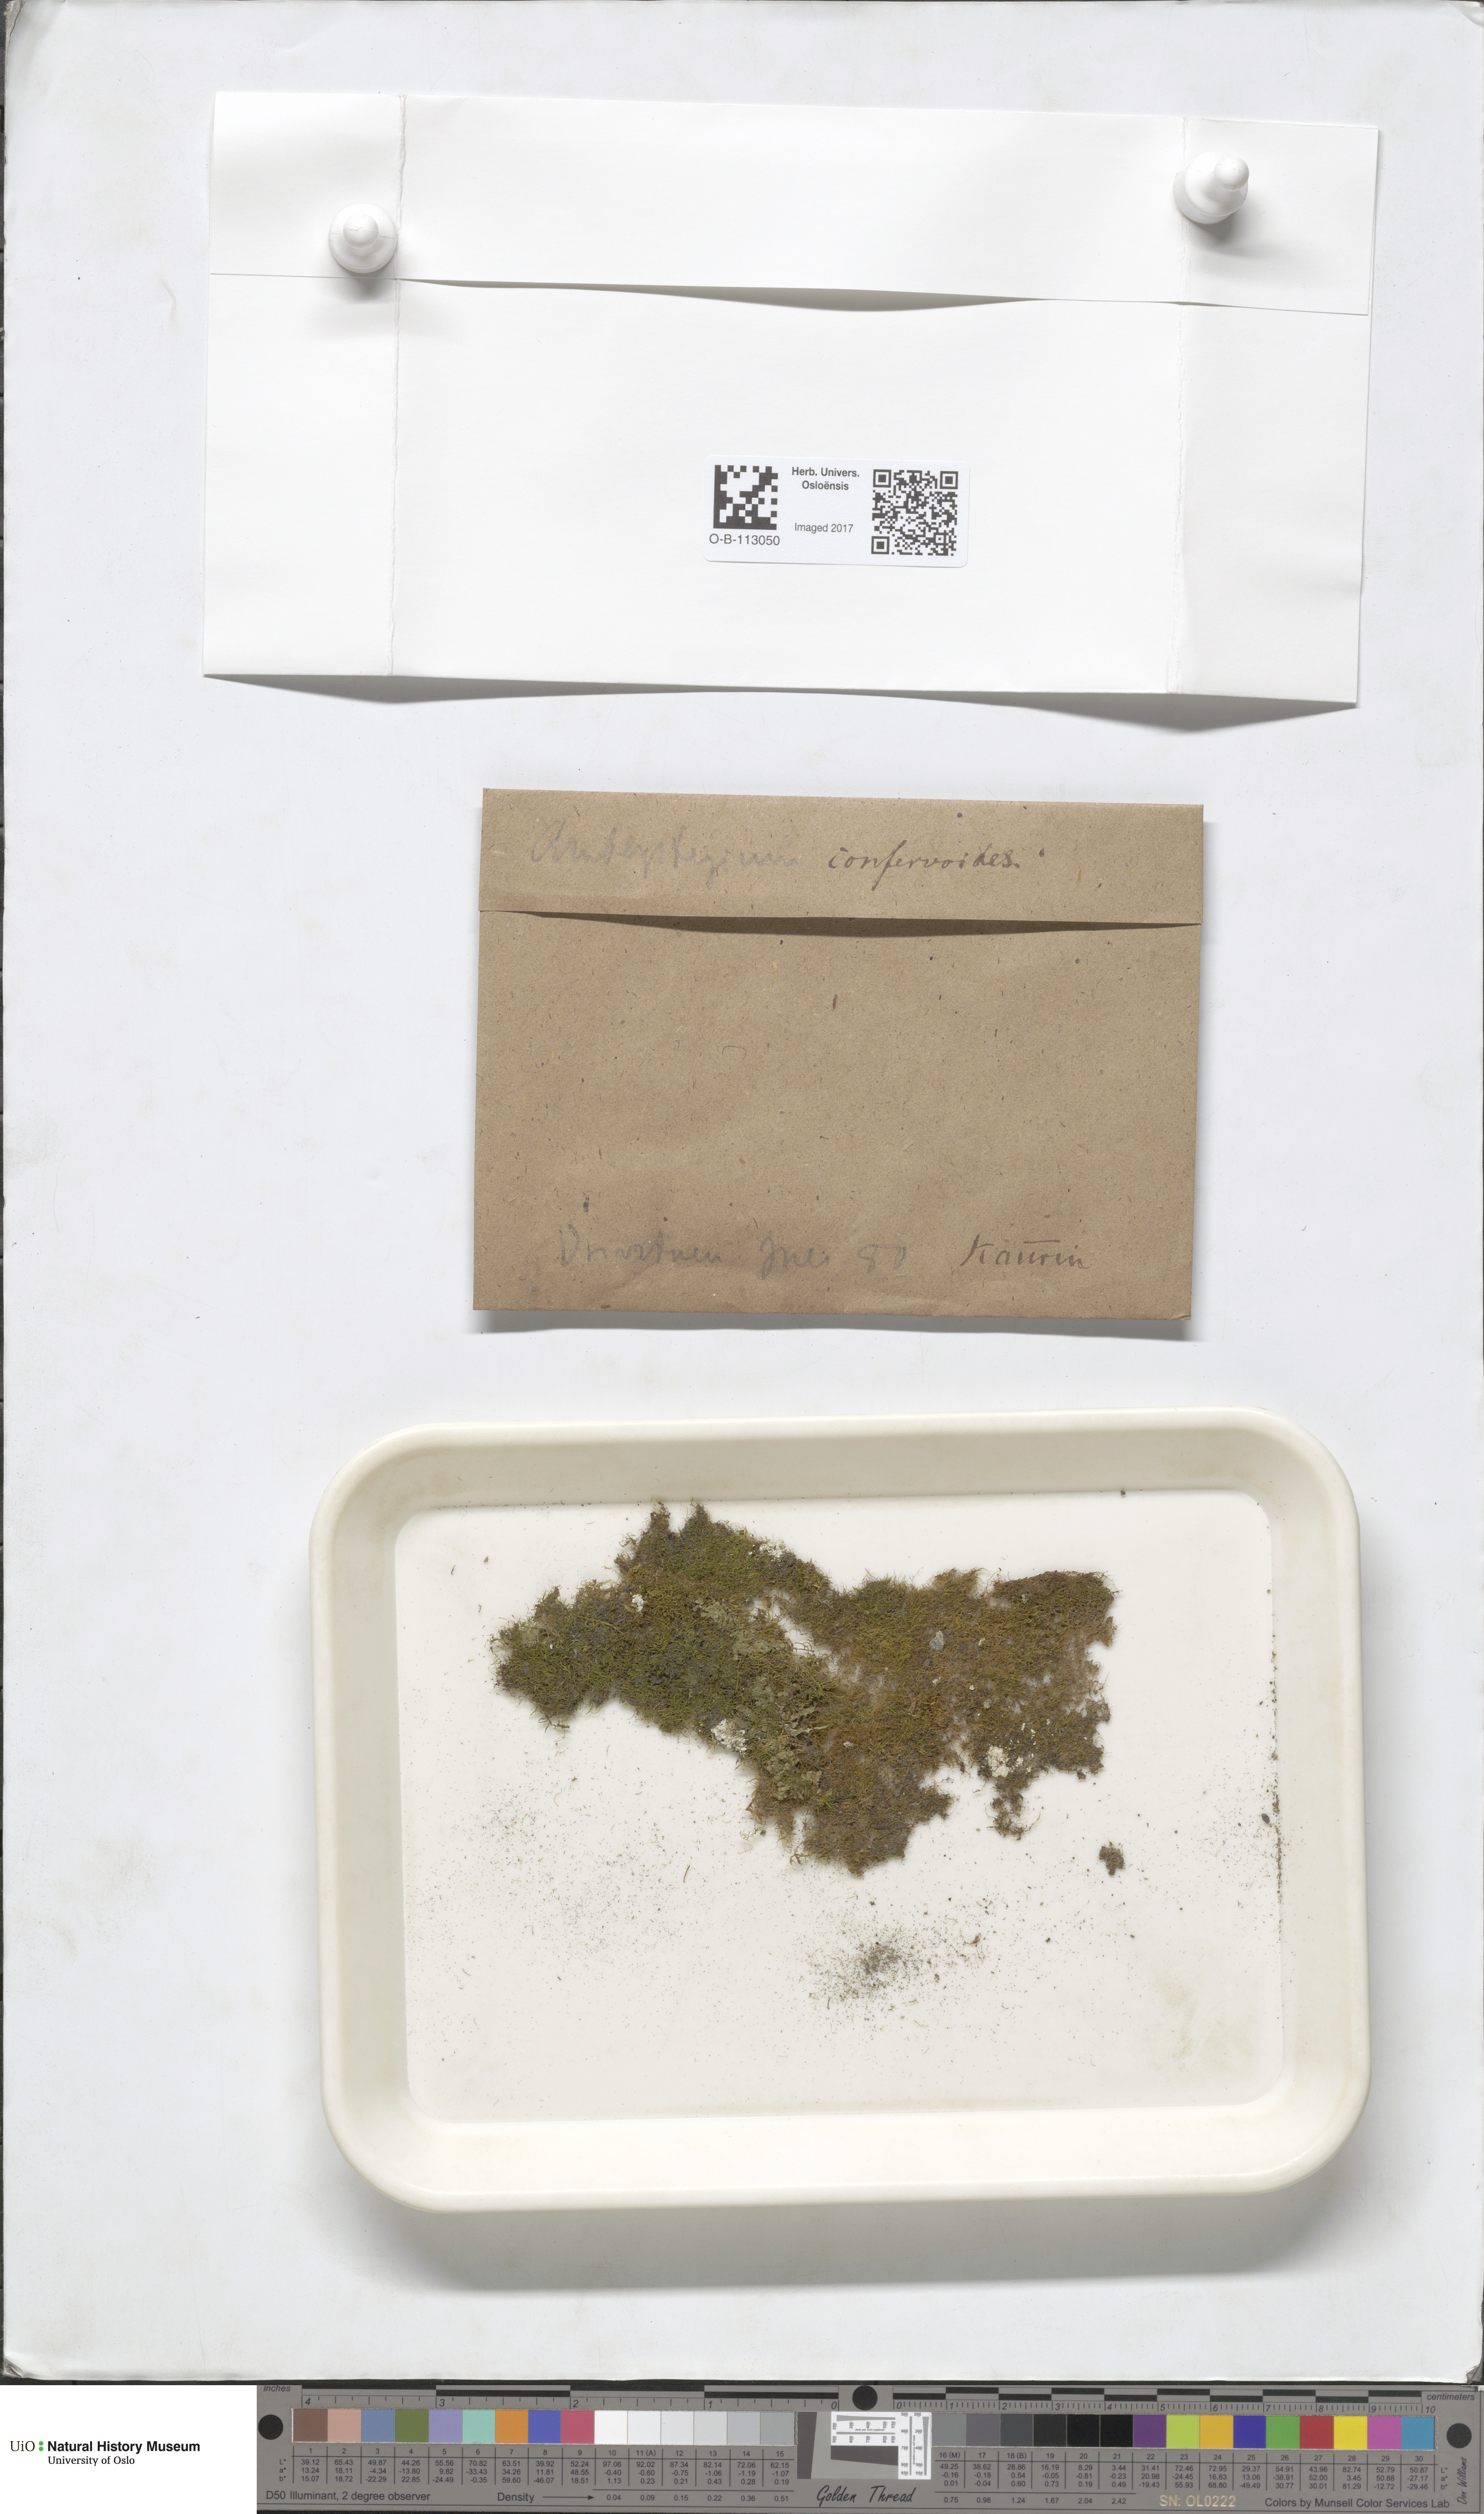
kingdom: Plantae
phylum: Bryophyta
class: Bryopsida
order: Hypnales
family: Amblystegiaceae
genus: Serpoleskea
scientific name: Serpoleskea confervoides
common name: Alga-like matted-moss
